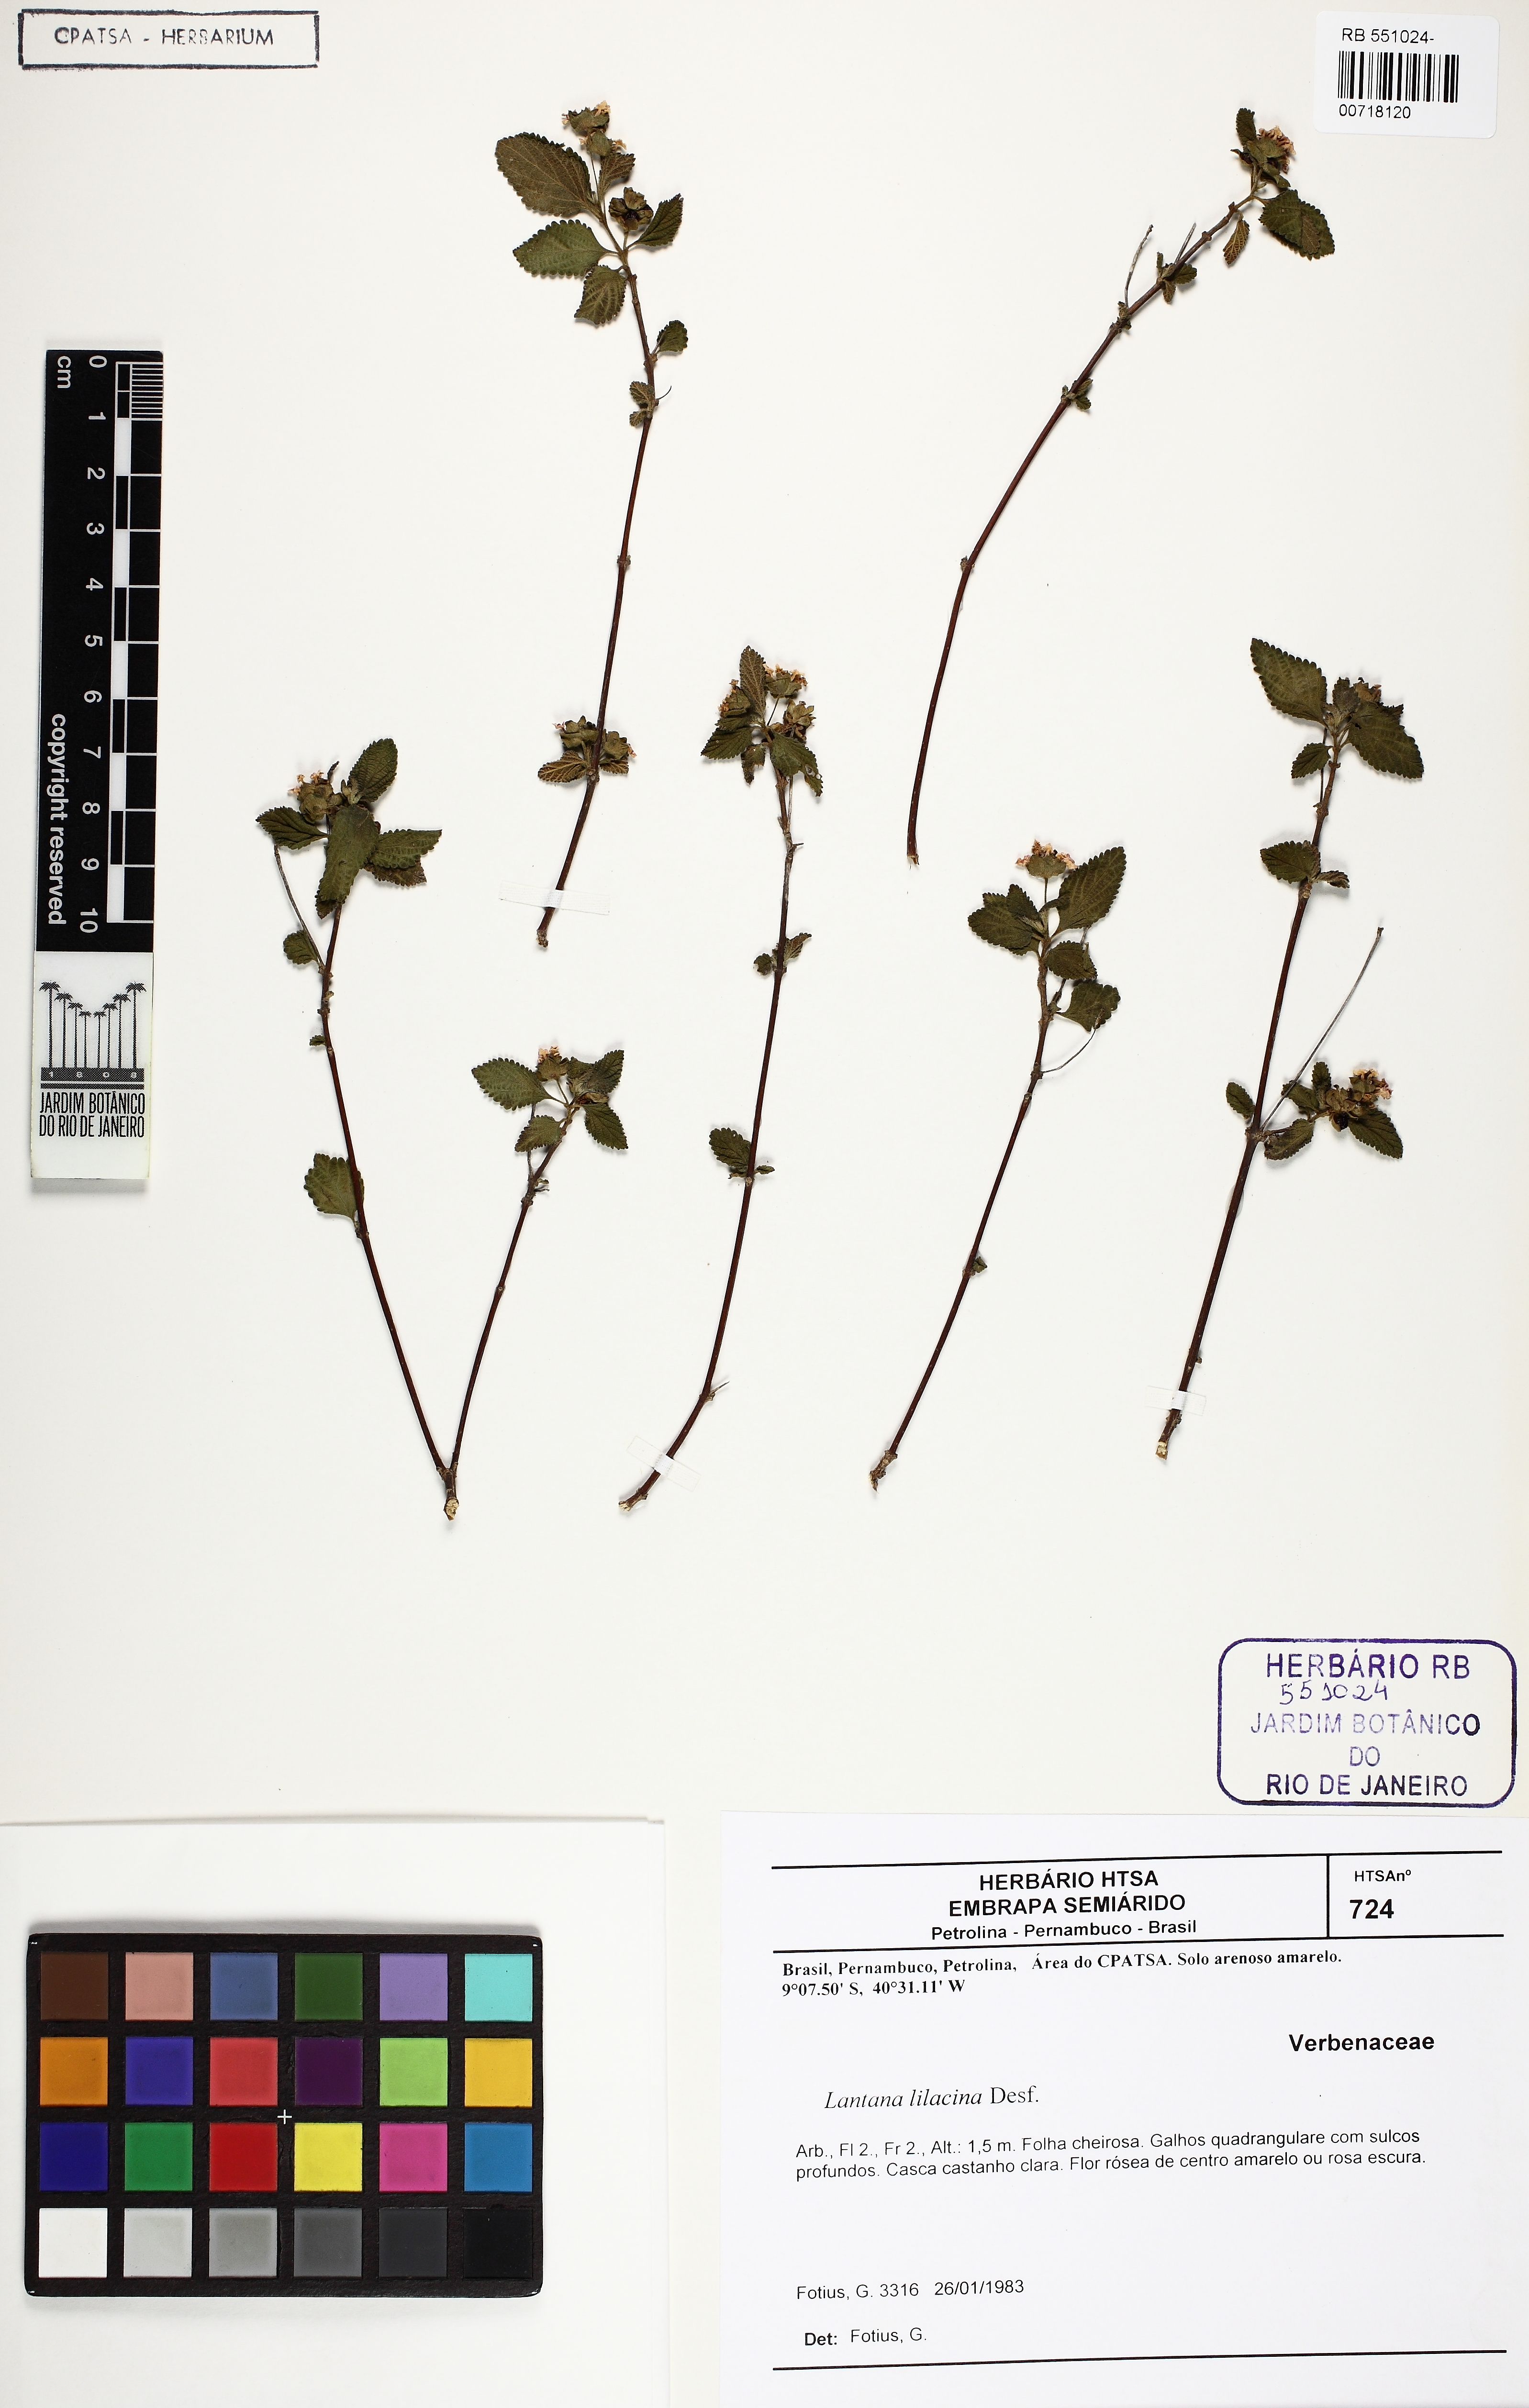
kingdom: Plantae
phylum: Tracheophyta
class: Magnoliopsida
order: Lamiales
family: Verbenaceae
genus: Lantana
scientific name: Lantana fucata
